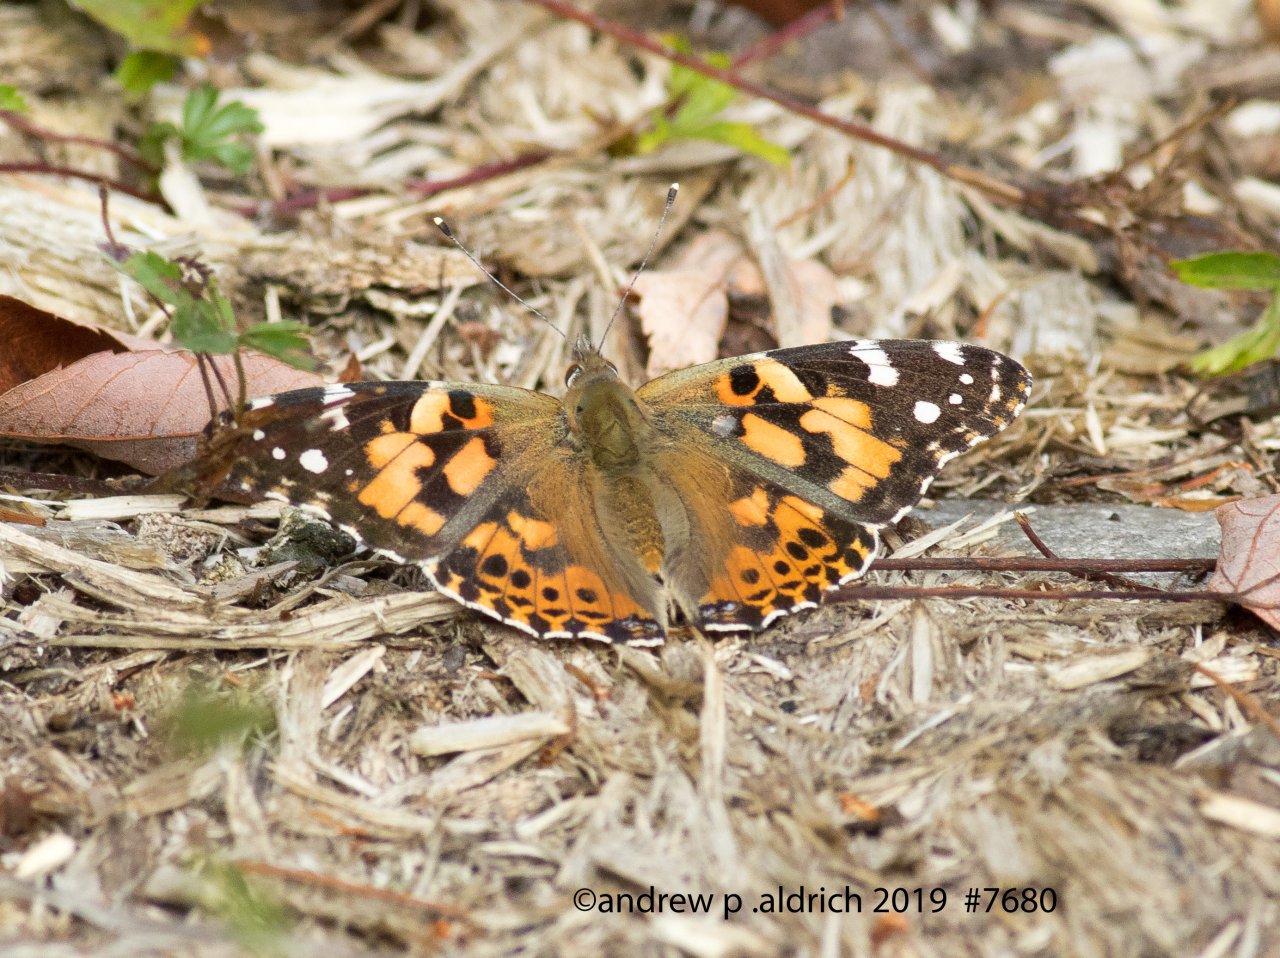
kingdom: Animalia
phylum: Arthropoda
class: Insecta
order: Lepidoptera
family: Nymphalidae
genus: Vanessa
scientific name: Vanessa cardui
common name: Painted Lady
